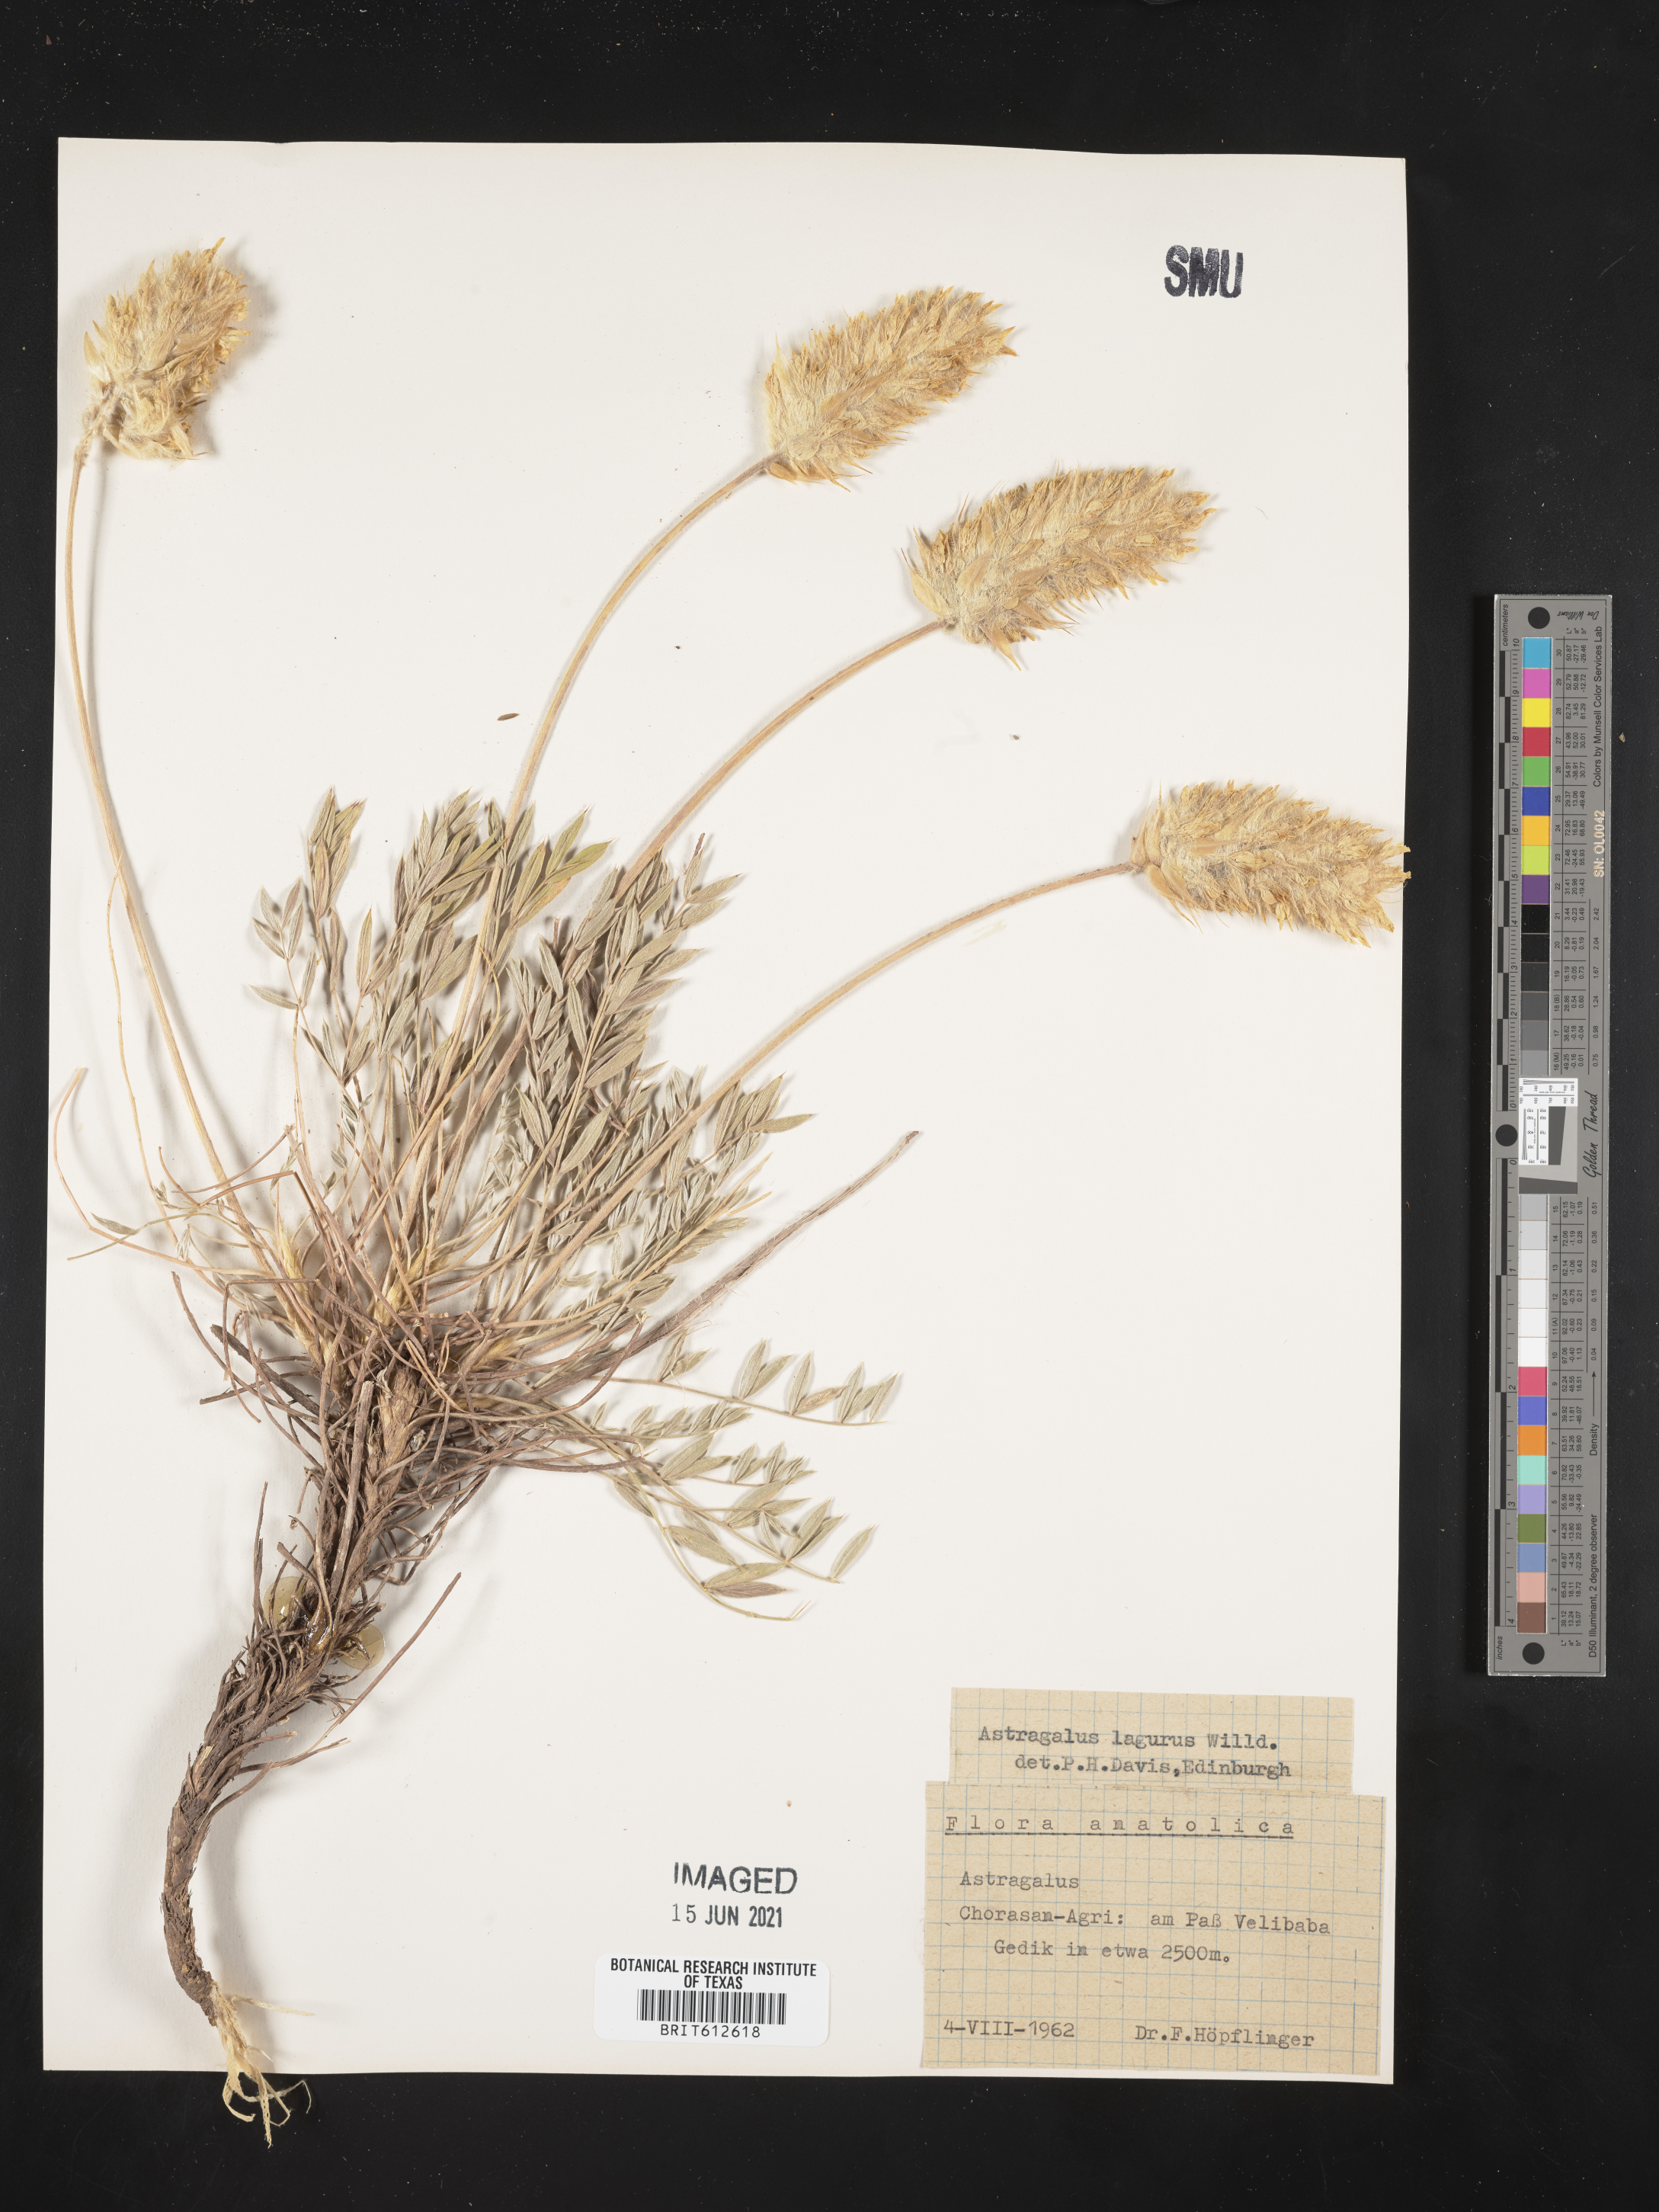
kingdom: Plantae
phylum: Tracheophyta
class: Magnoliopsida
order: Fabales
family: Fabaceae
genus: Astragalus
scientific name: Astragalus lagopoides
